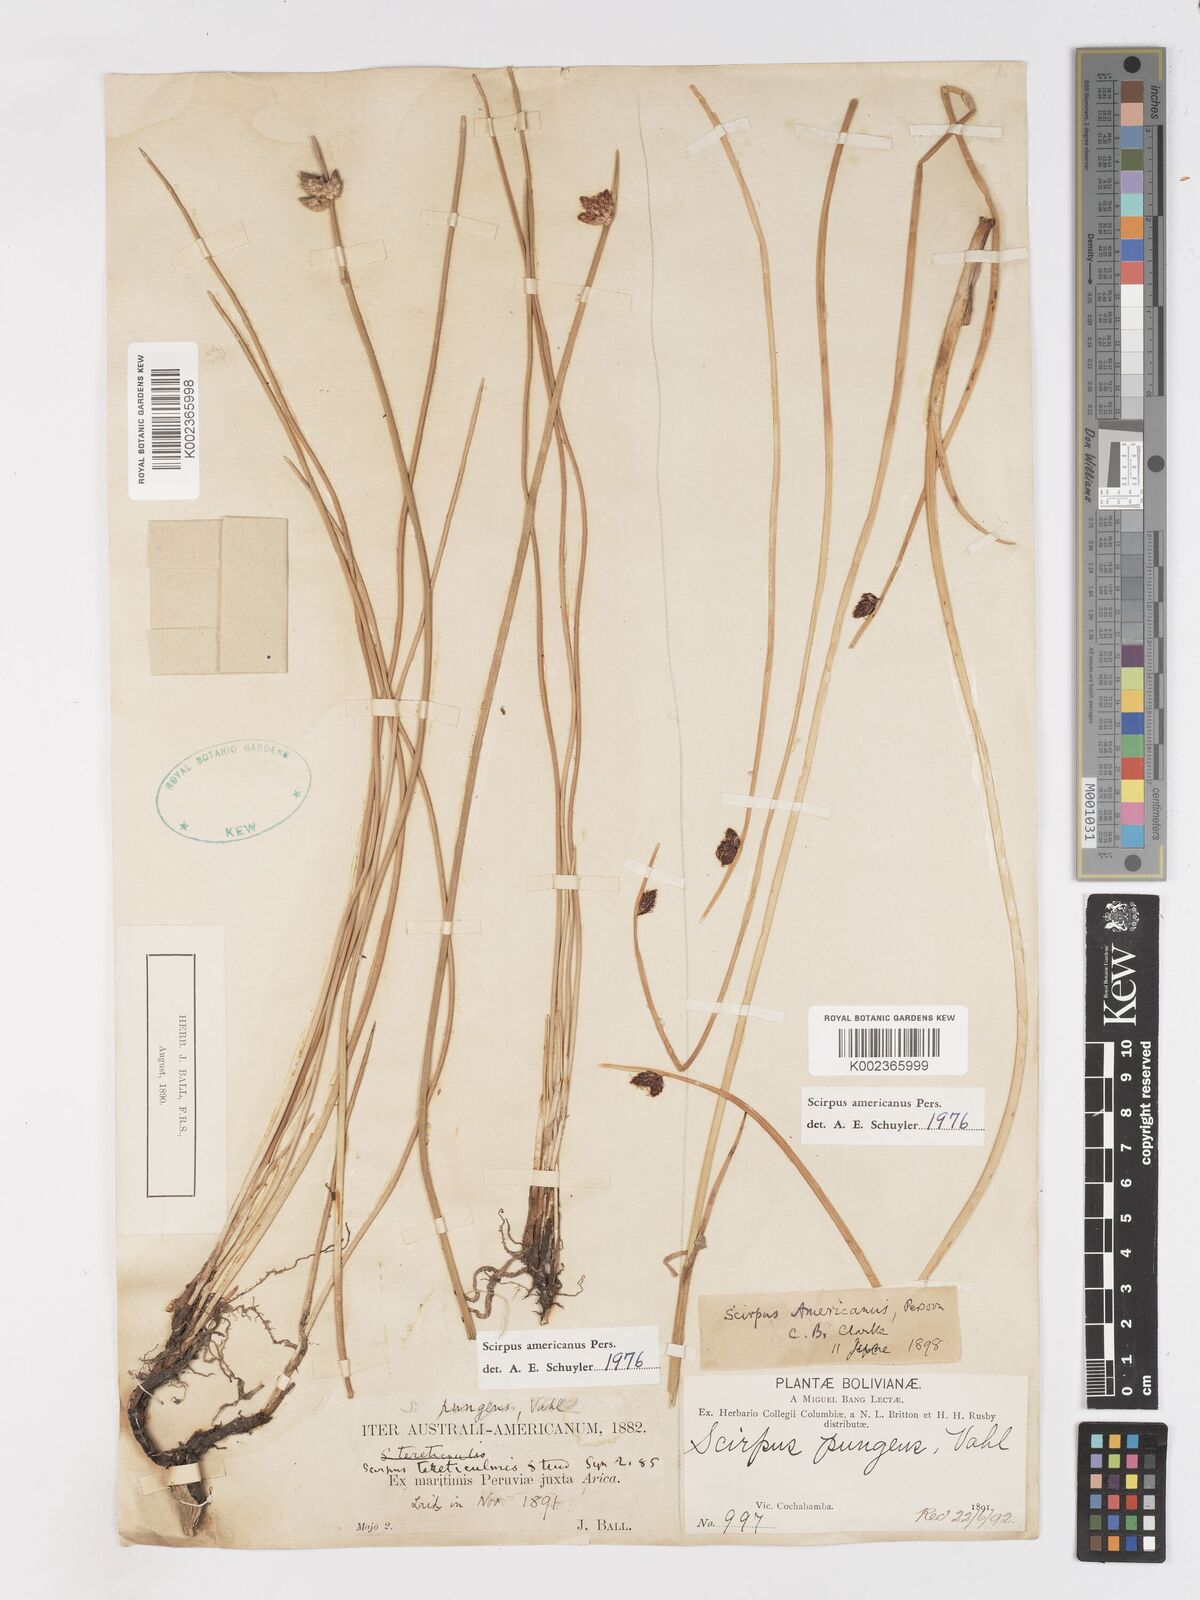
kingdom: Plantae
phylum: Tracheophyta
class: Liliopsida
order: Poales
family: Cyperaceae
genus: Schoenoplectus
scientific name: Schoenoplectus americanus
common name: American three-square bulrush
